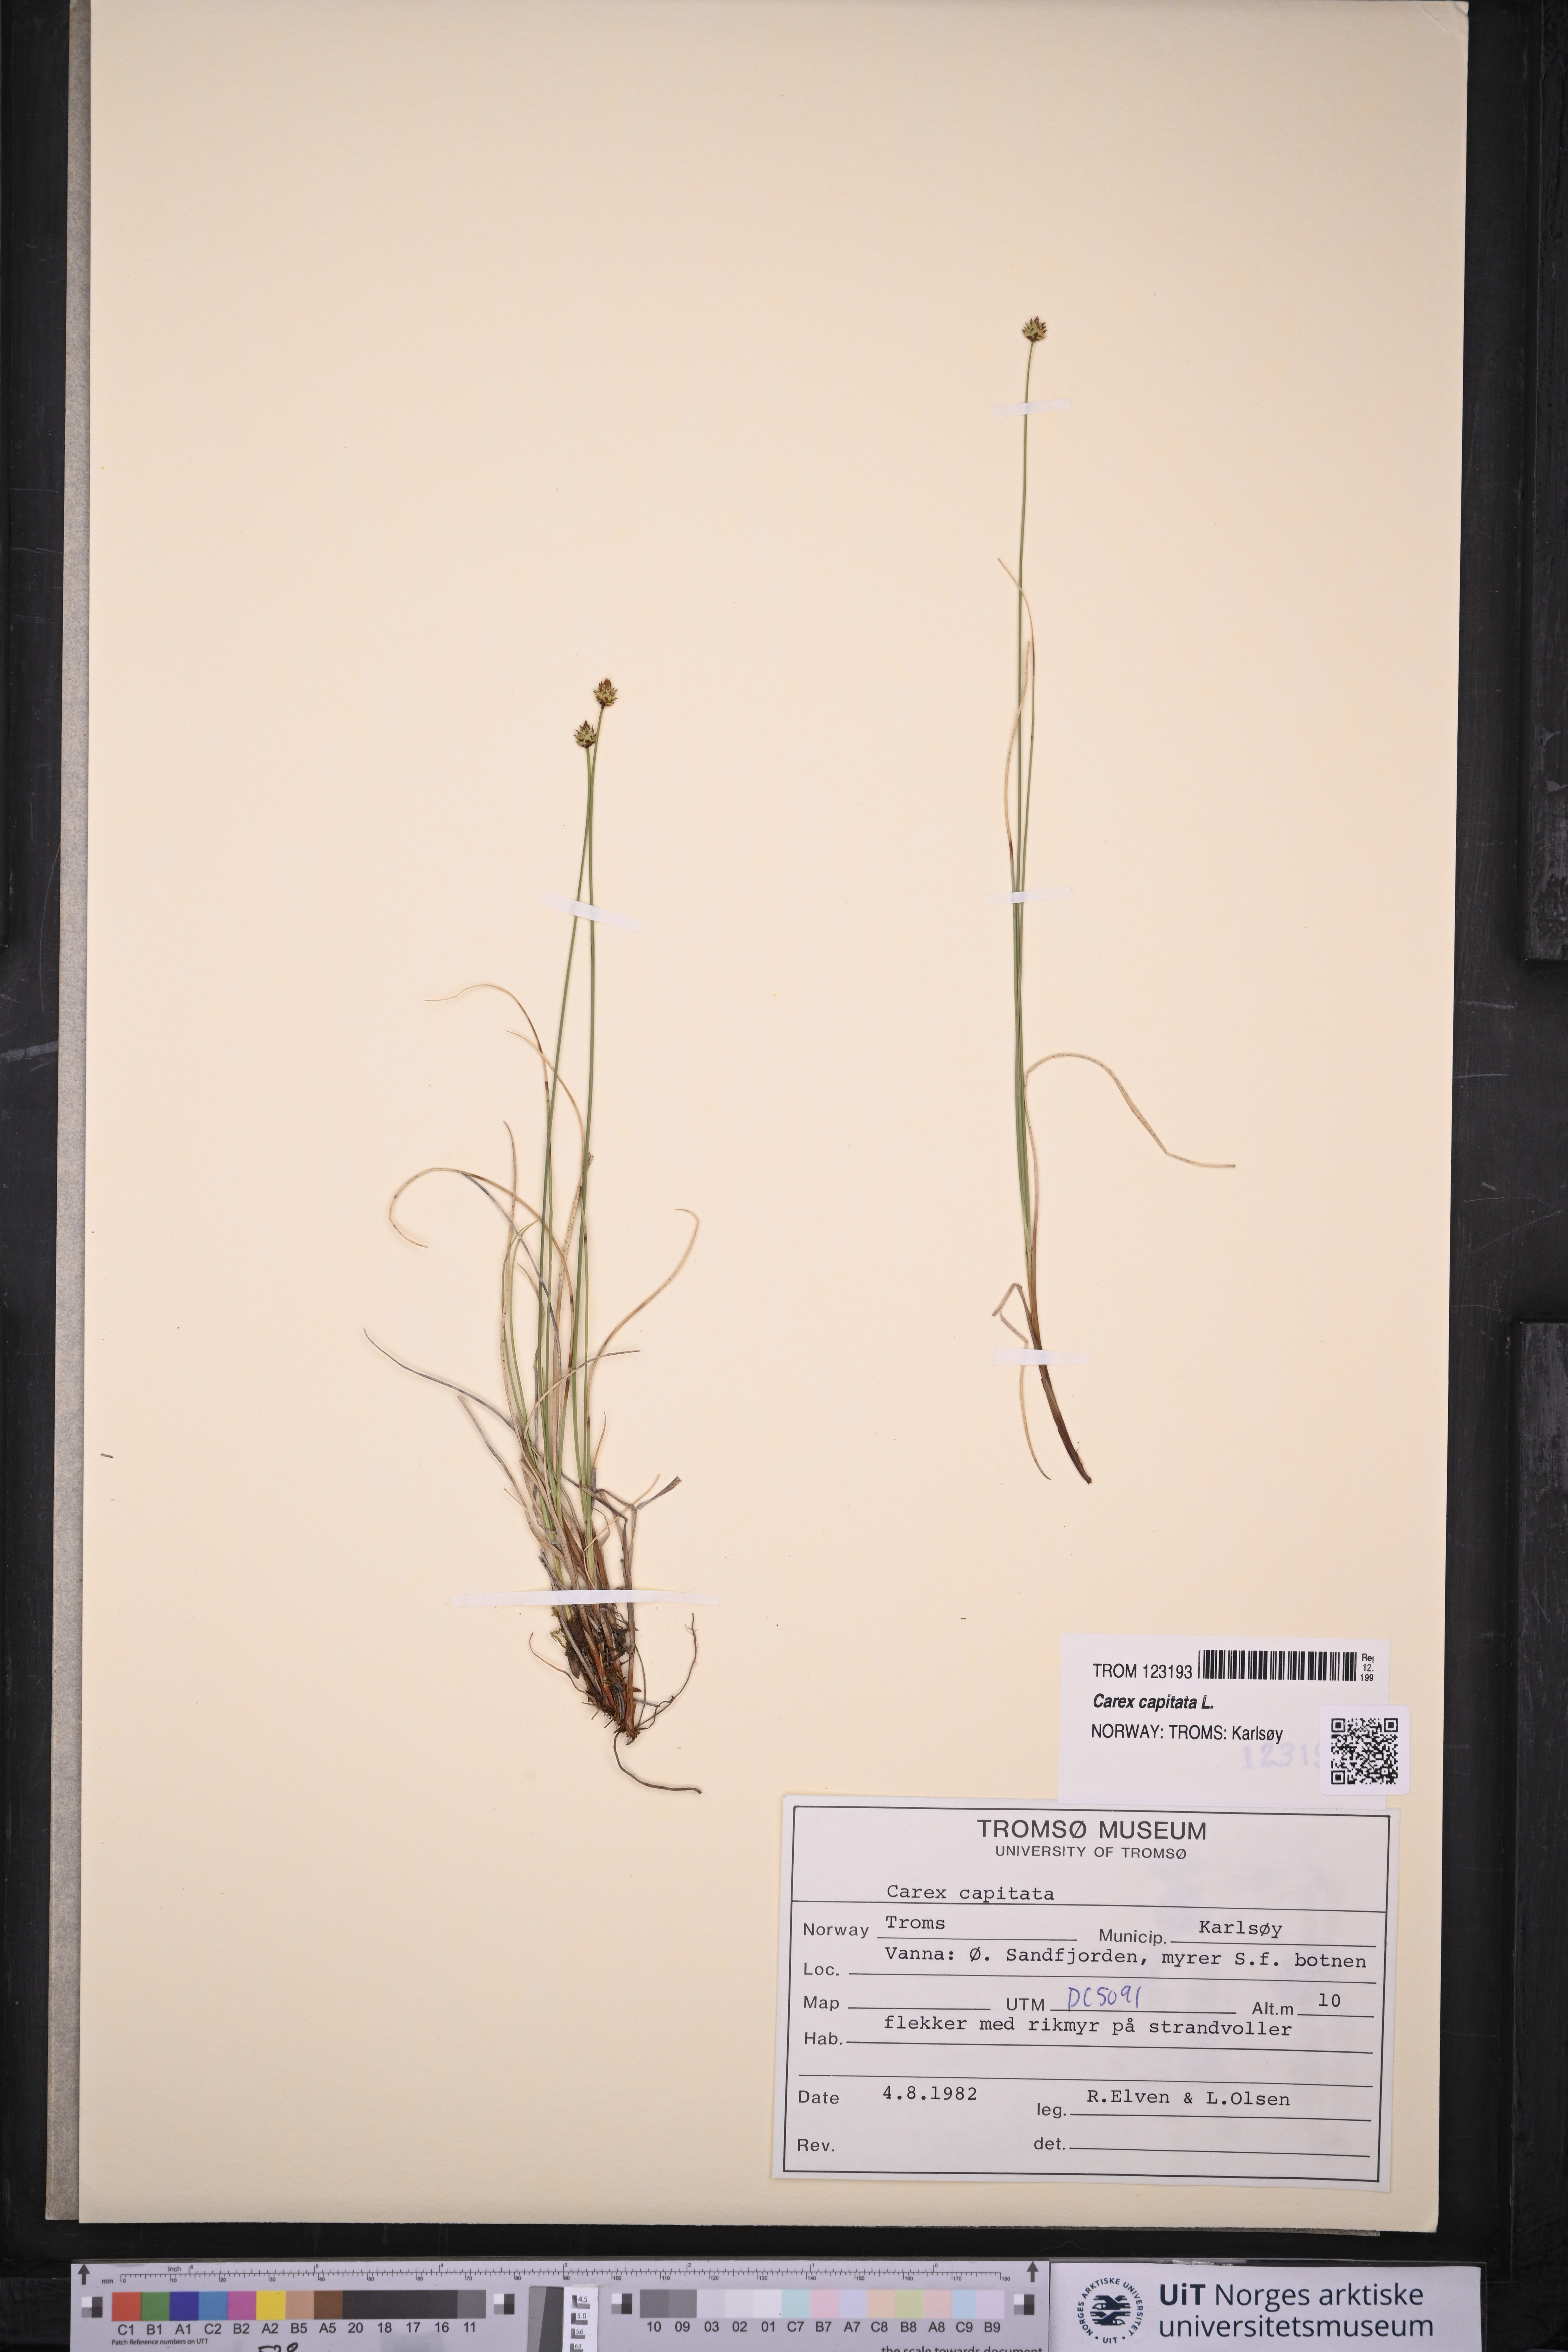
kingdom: Plantae
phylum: Tracheophyta
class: Liliopsida
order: Poales
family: Cyperaceae
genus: Carex
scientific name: Carex capitata
